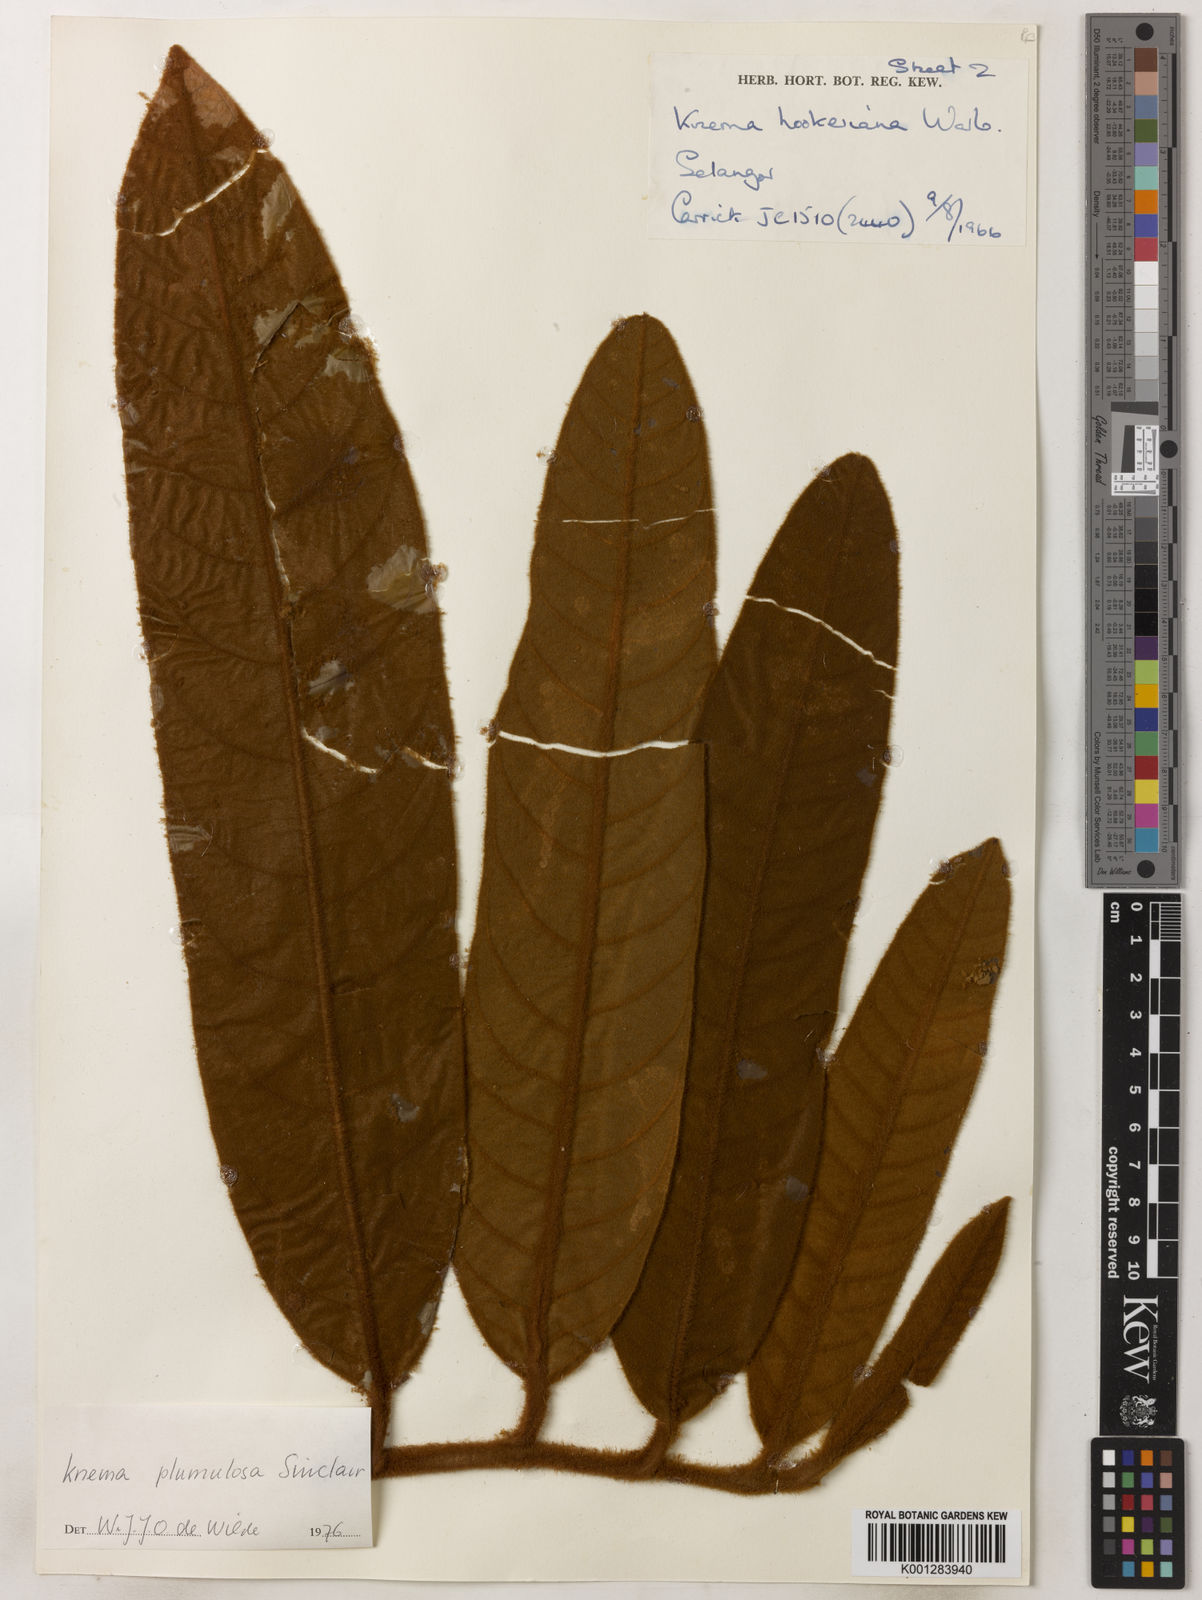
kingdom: Plantae
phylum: Tracheophyta
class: Magnoliopsida
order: Magnoliales
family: Myristicaceae
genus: Knema
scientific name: Knema plumulosa
